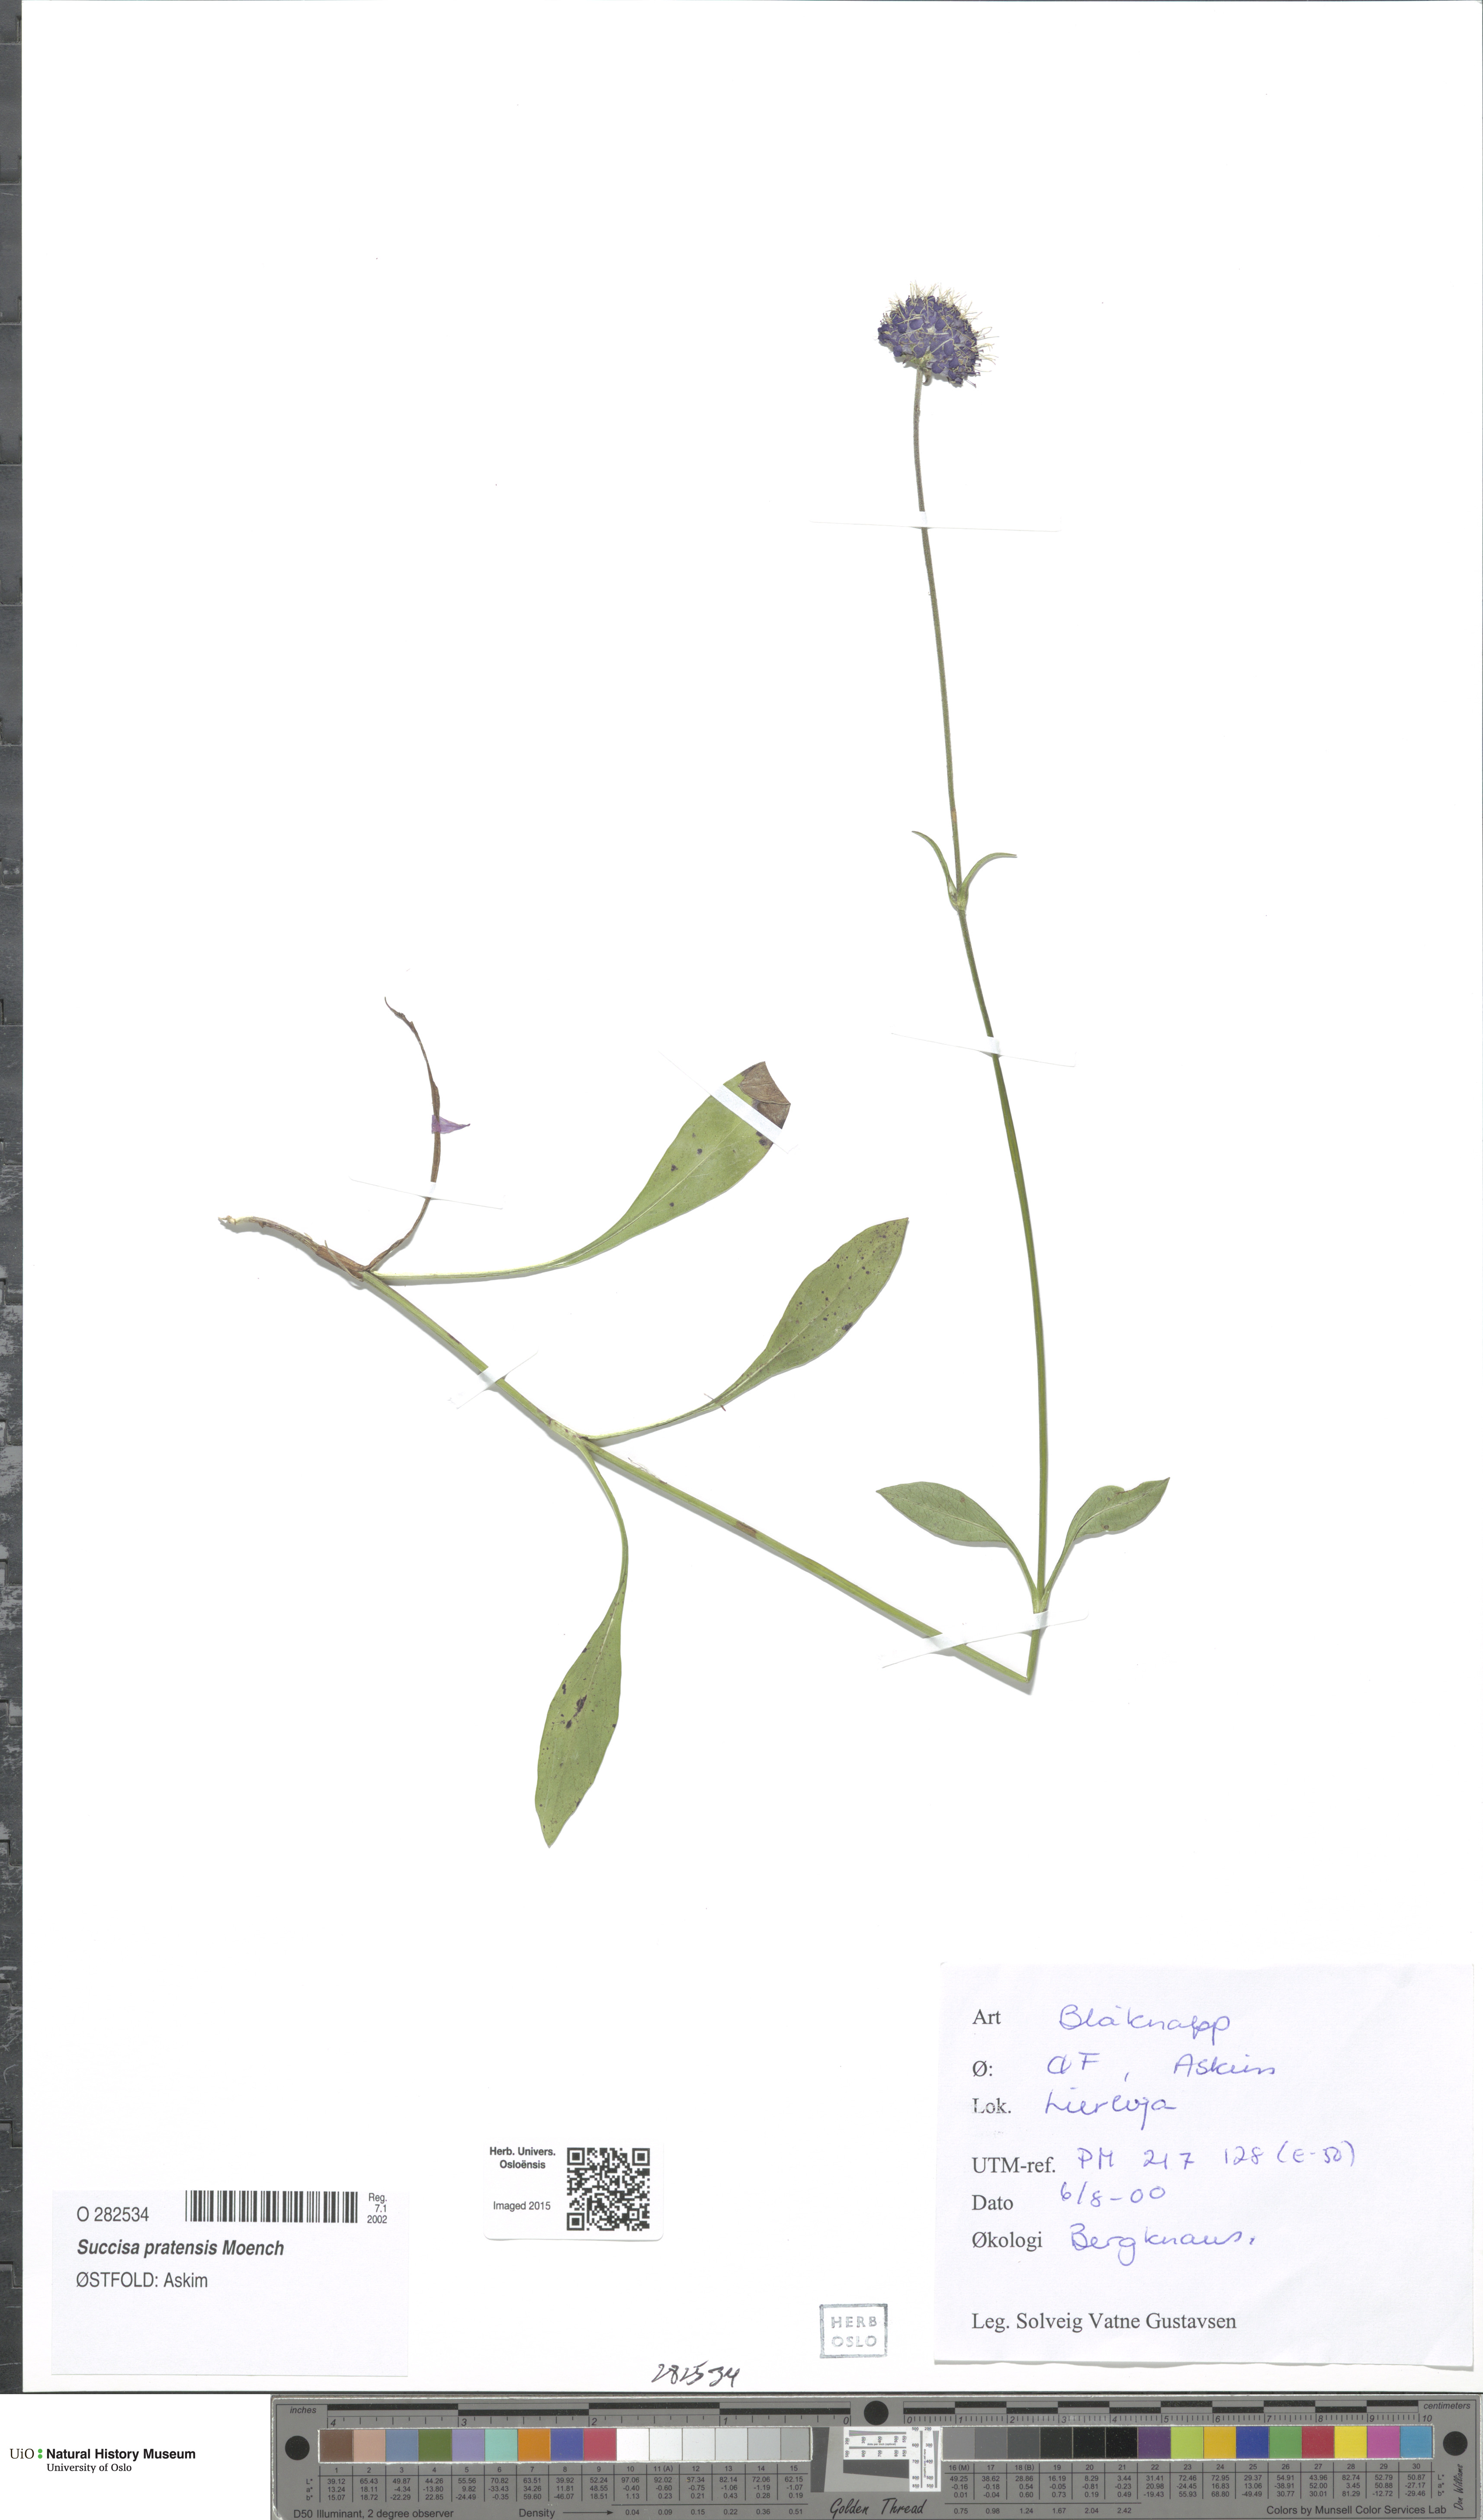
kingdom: Plantae
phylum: Tracheophyta
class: Magnoliopsida
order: Dipsacales
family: Caprifoliaceae
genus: Succisa
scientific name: Succisa pratensis
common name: Devil's-bit
